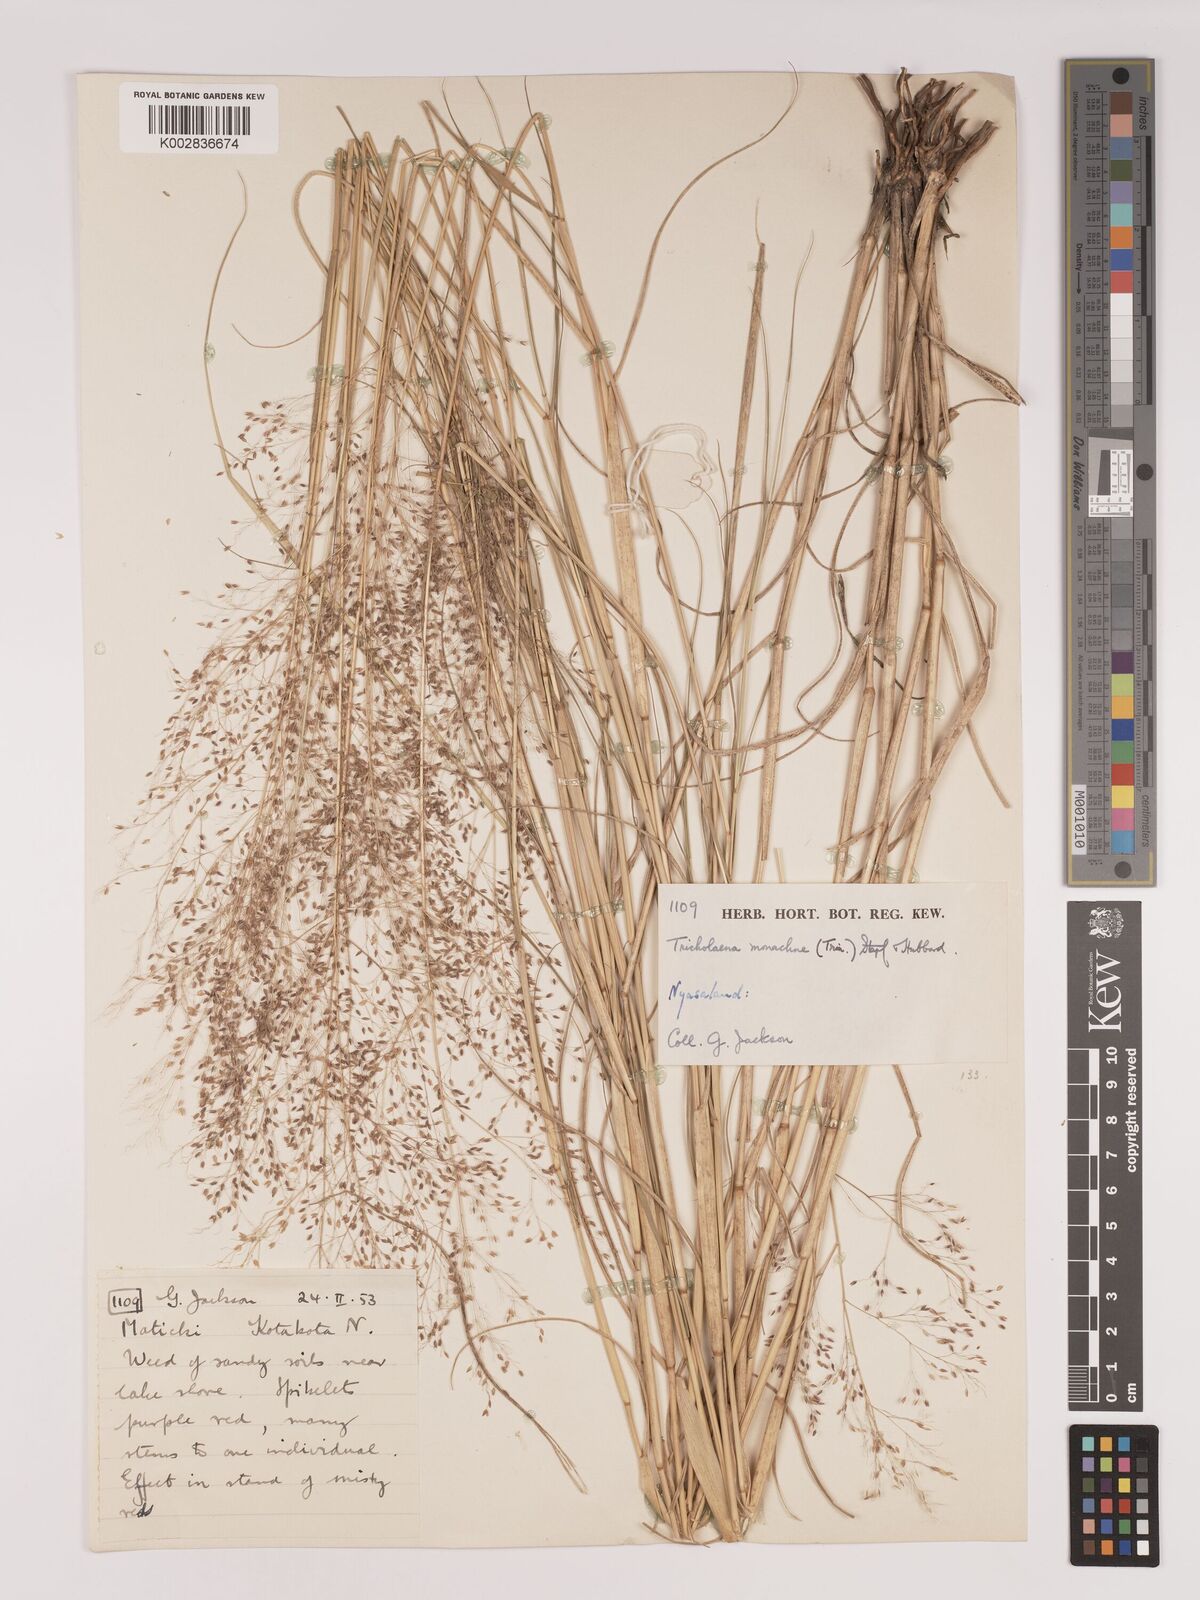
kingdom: Plantae
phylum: Tracheophyta
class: Liliopsida
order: Poales
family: Poaceae
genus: Tricholaena
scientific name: Tricholaena monachne
